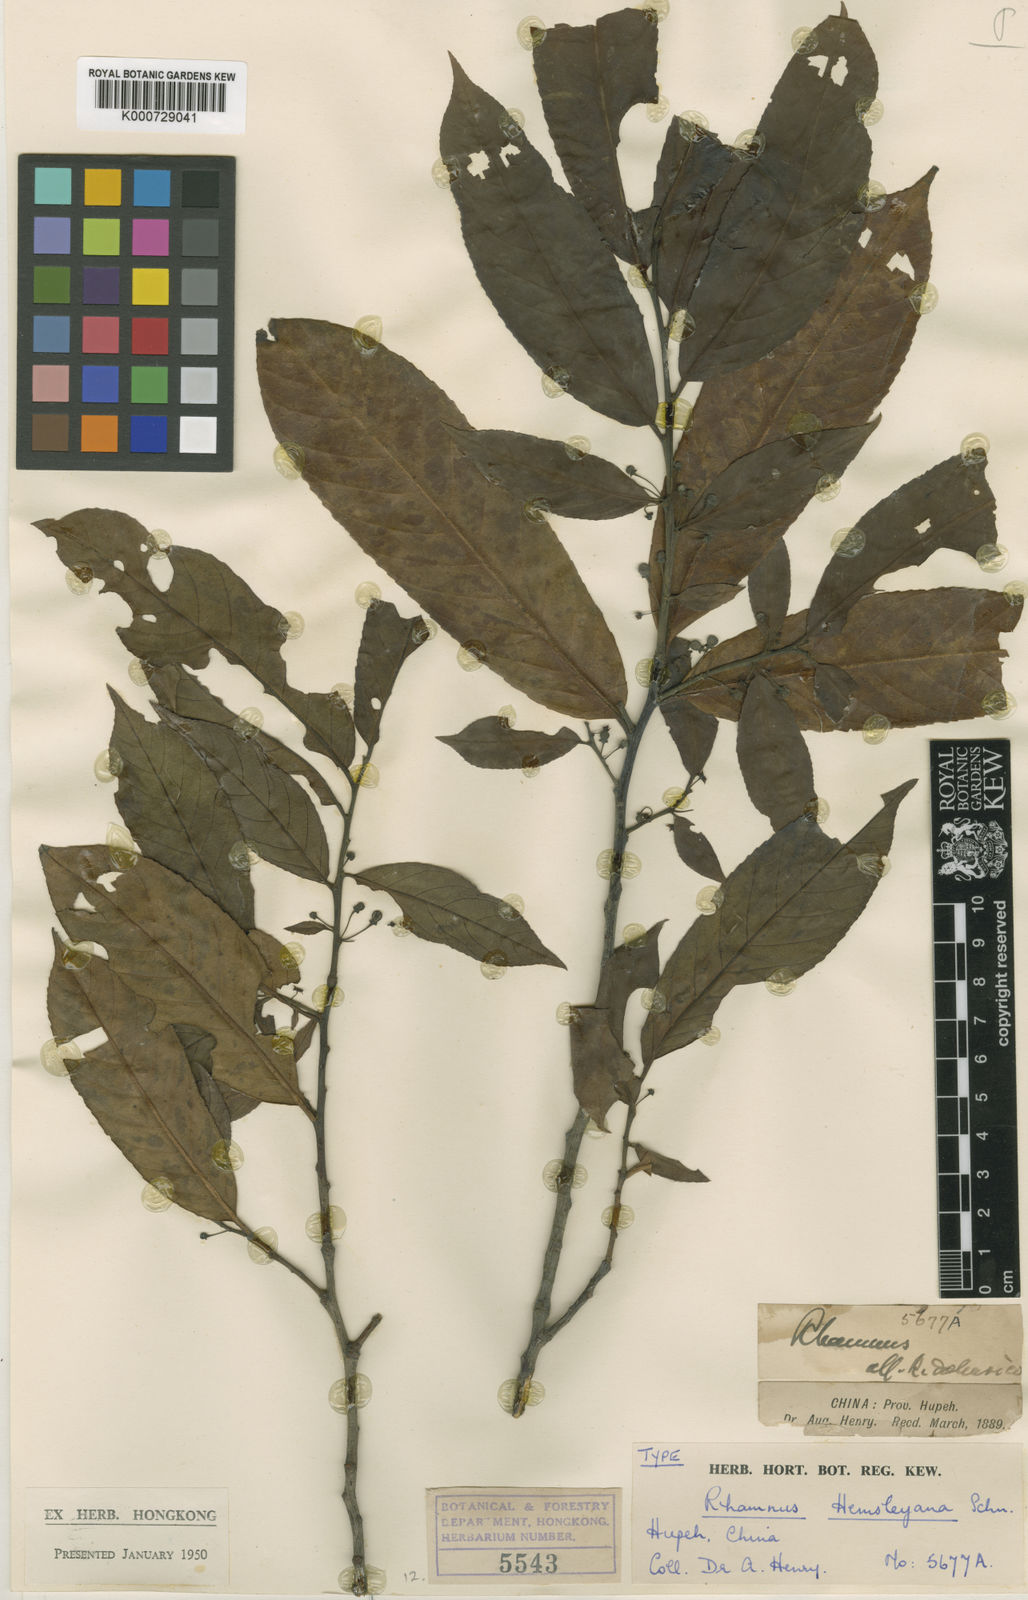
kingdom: Plantae
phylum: Tracheophyta
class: Magnoliopsida
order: Rosales
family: Rhamnaceae
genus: Rhamnus
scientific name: Rhamnus hemsleyana
